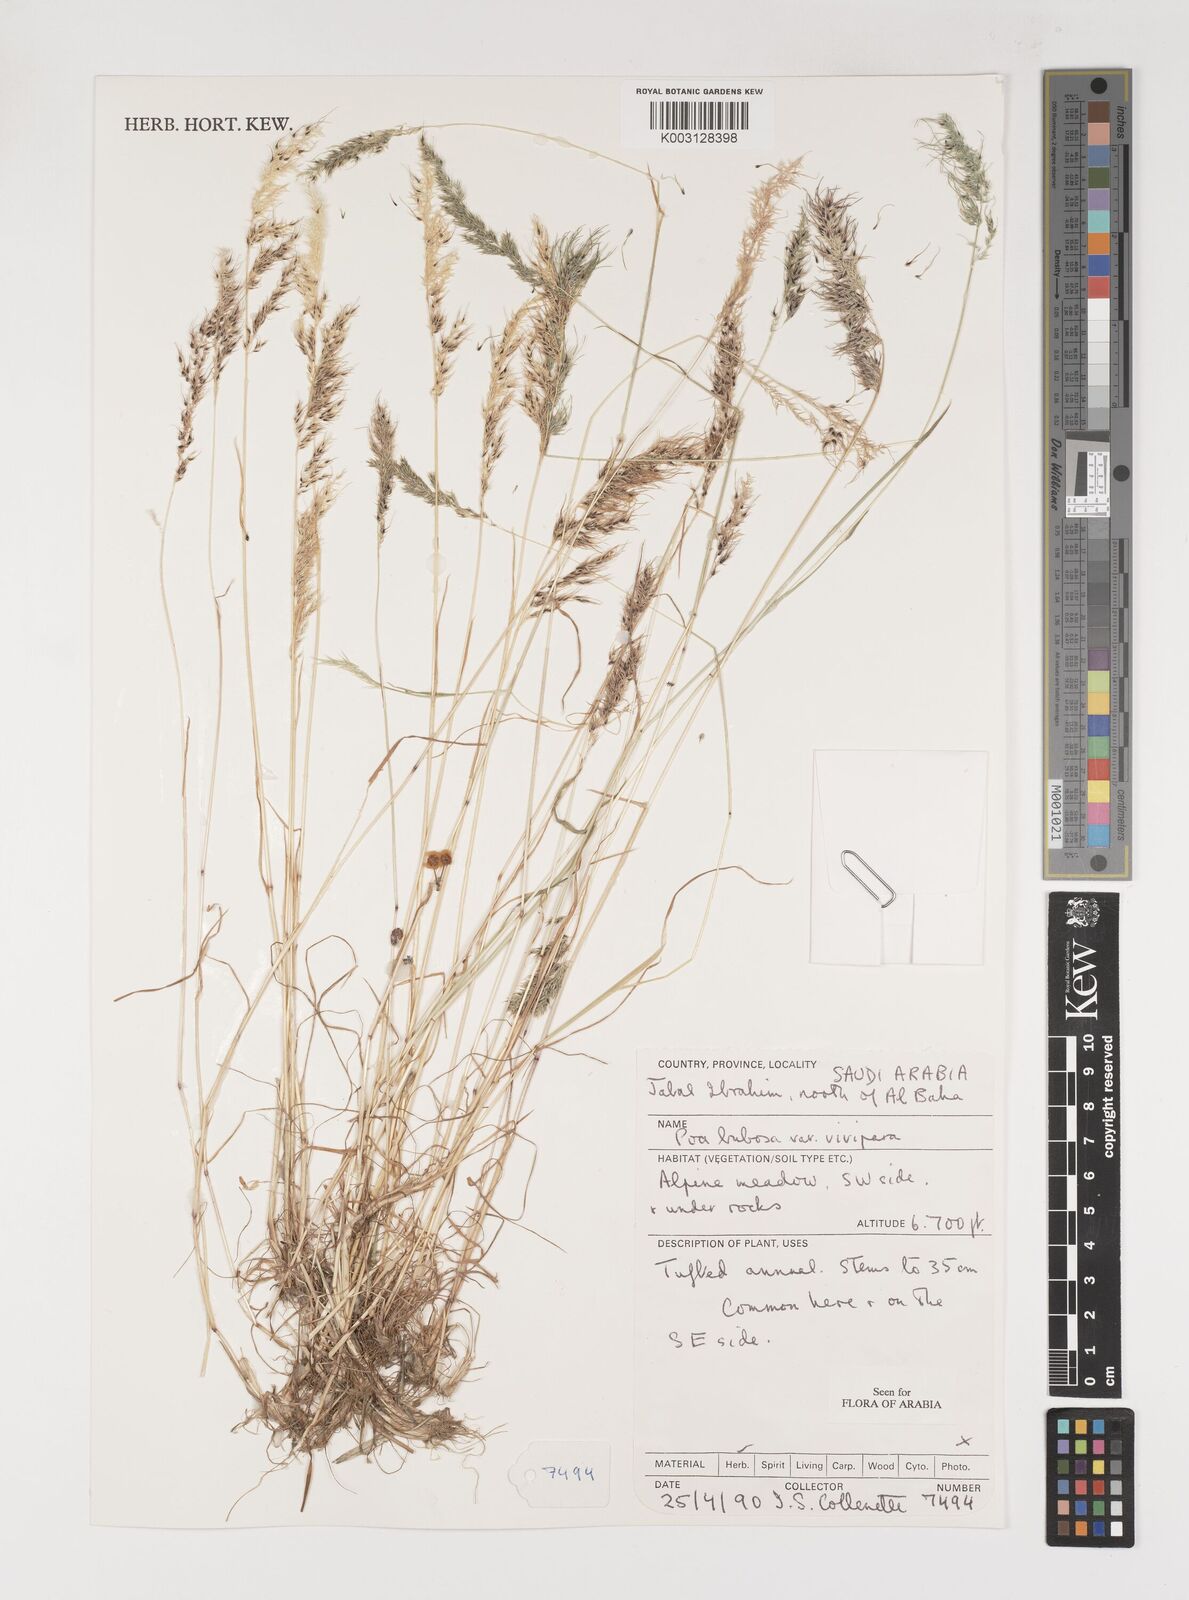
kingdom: Plantae
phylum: Tracheophyta
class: Liliopsida
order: Poales
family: Poaceae
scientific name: Poaceae
